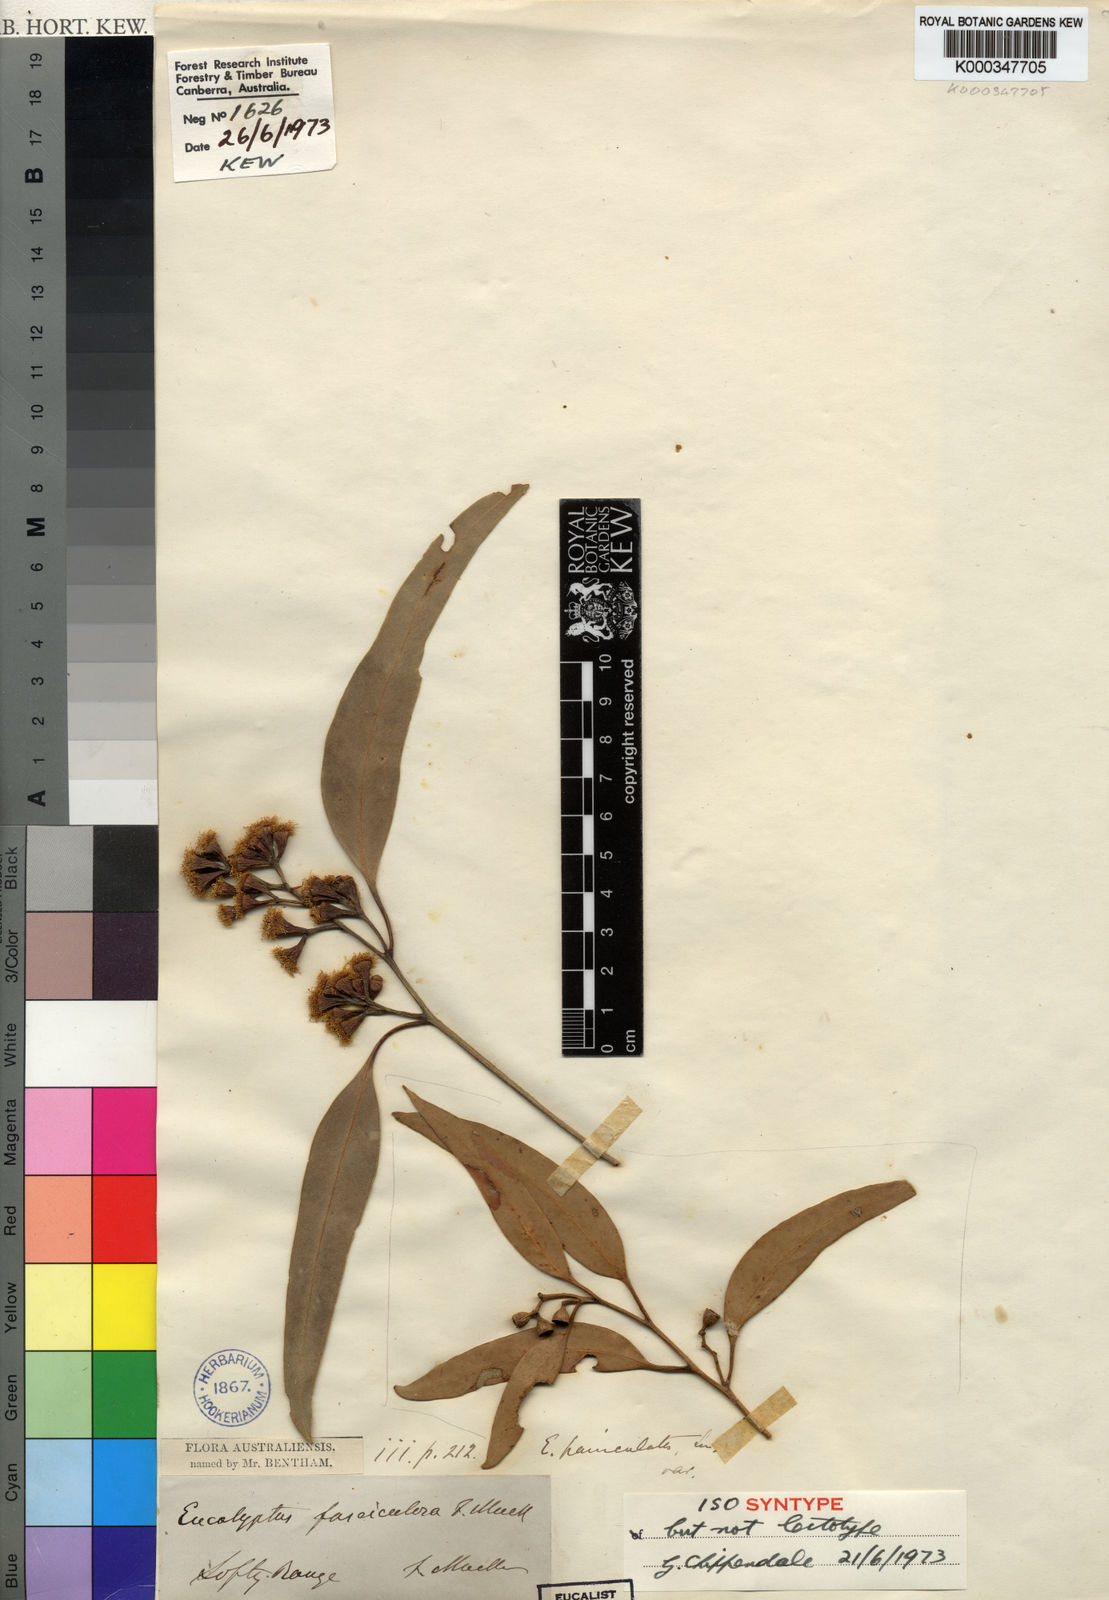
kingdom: Plantae
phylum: Tracheophyta
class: Magnoliopsida
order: Myrtales
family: Myrtaceae
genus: Eucalyptus
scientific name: Eucalyptus fasciculosa
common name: Hill gum
